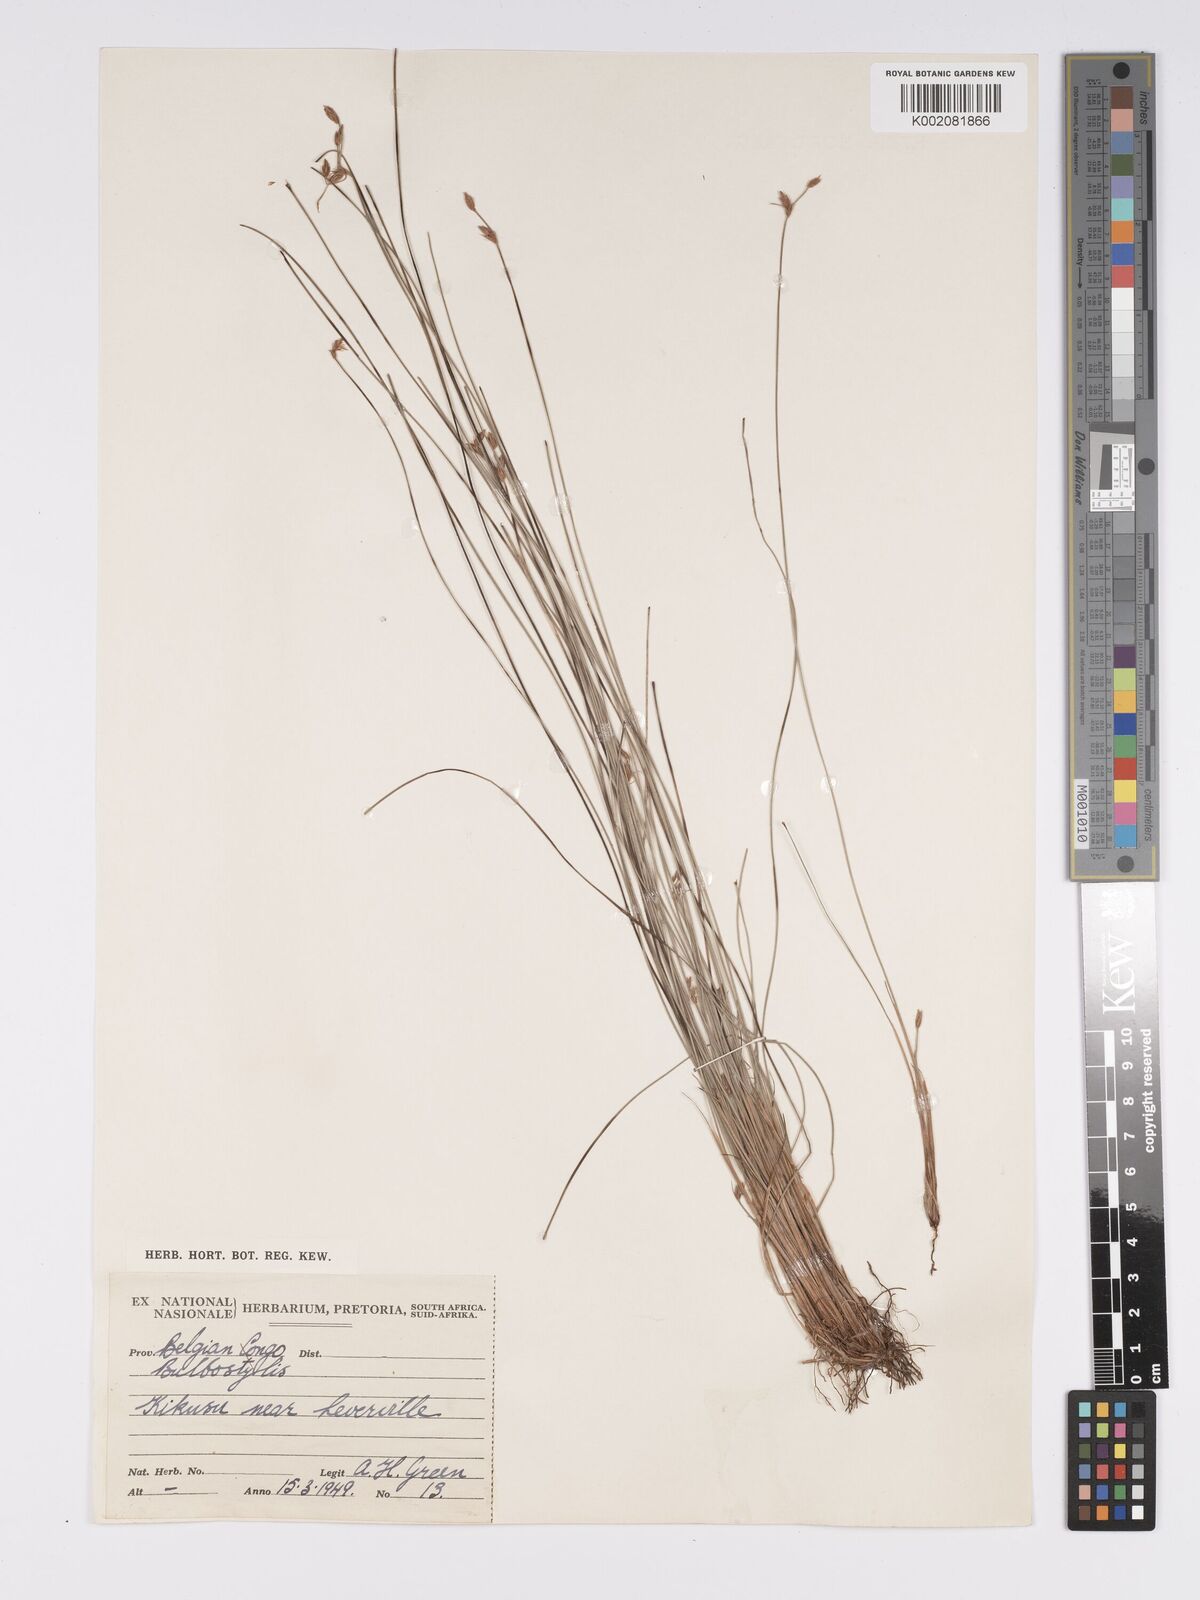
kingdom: Plantae
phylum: Tracheophyta
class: Liliopsida
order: Poales
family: Cyperaceae
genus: Bulbostylis
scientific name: Bulbostylis hispidula
